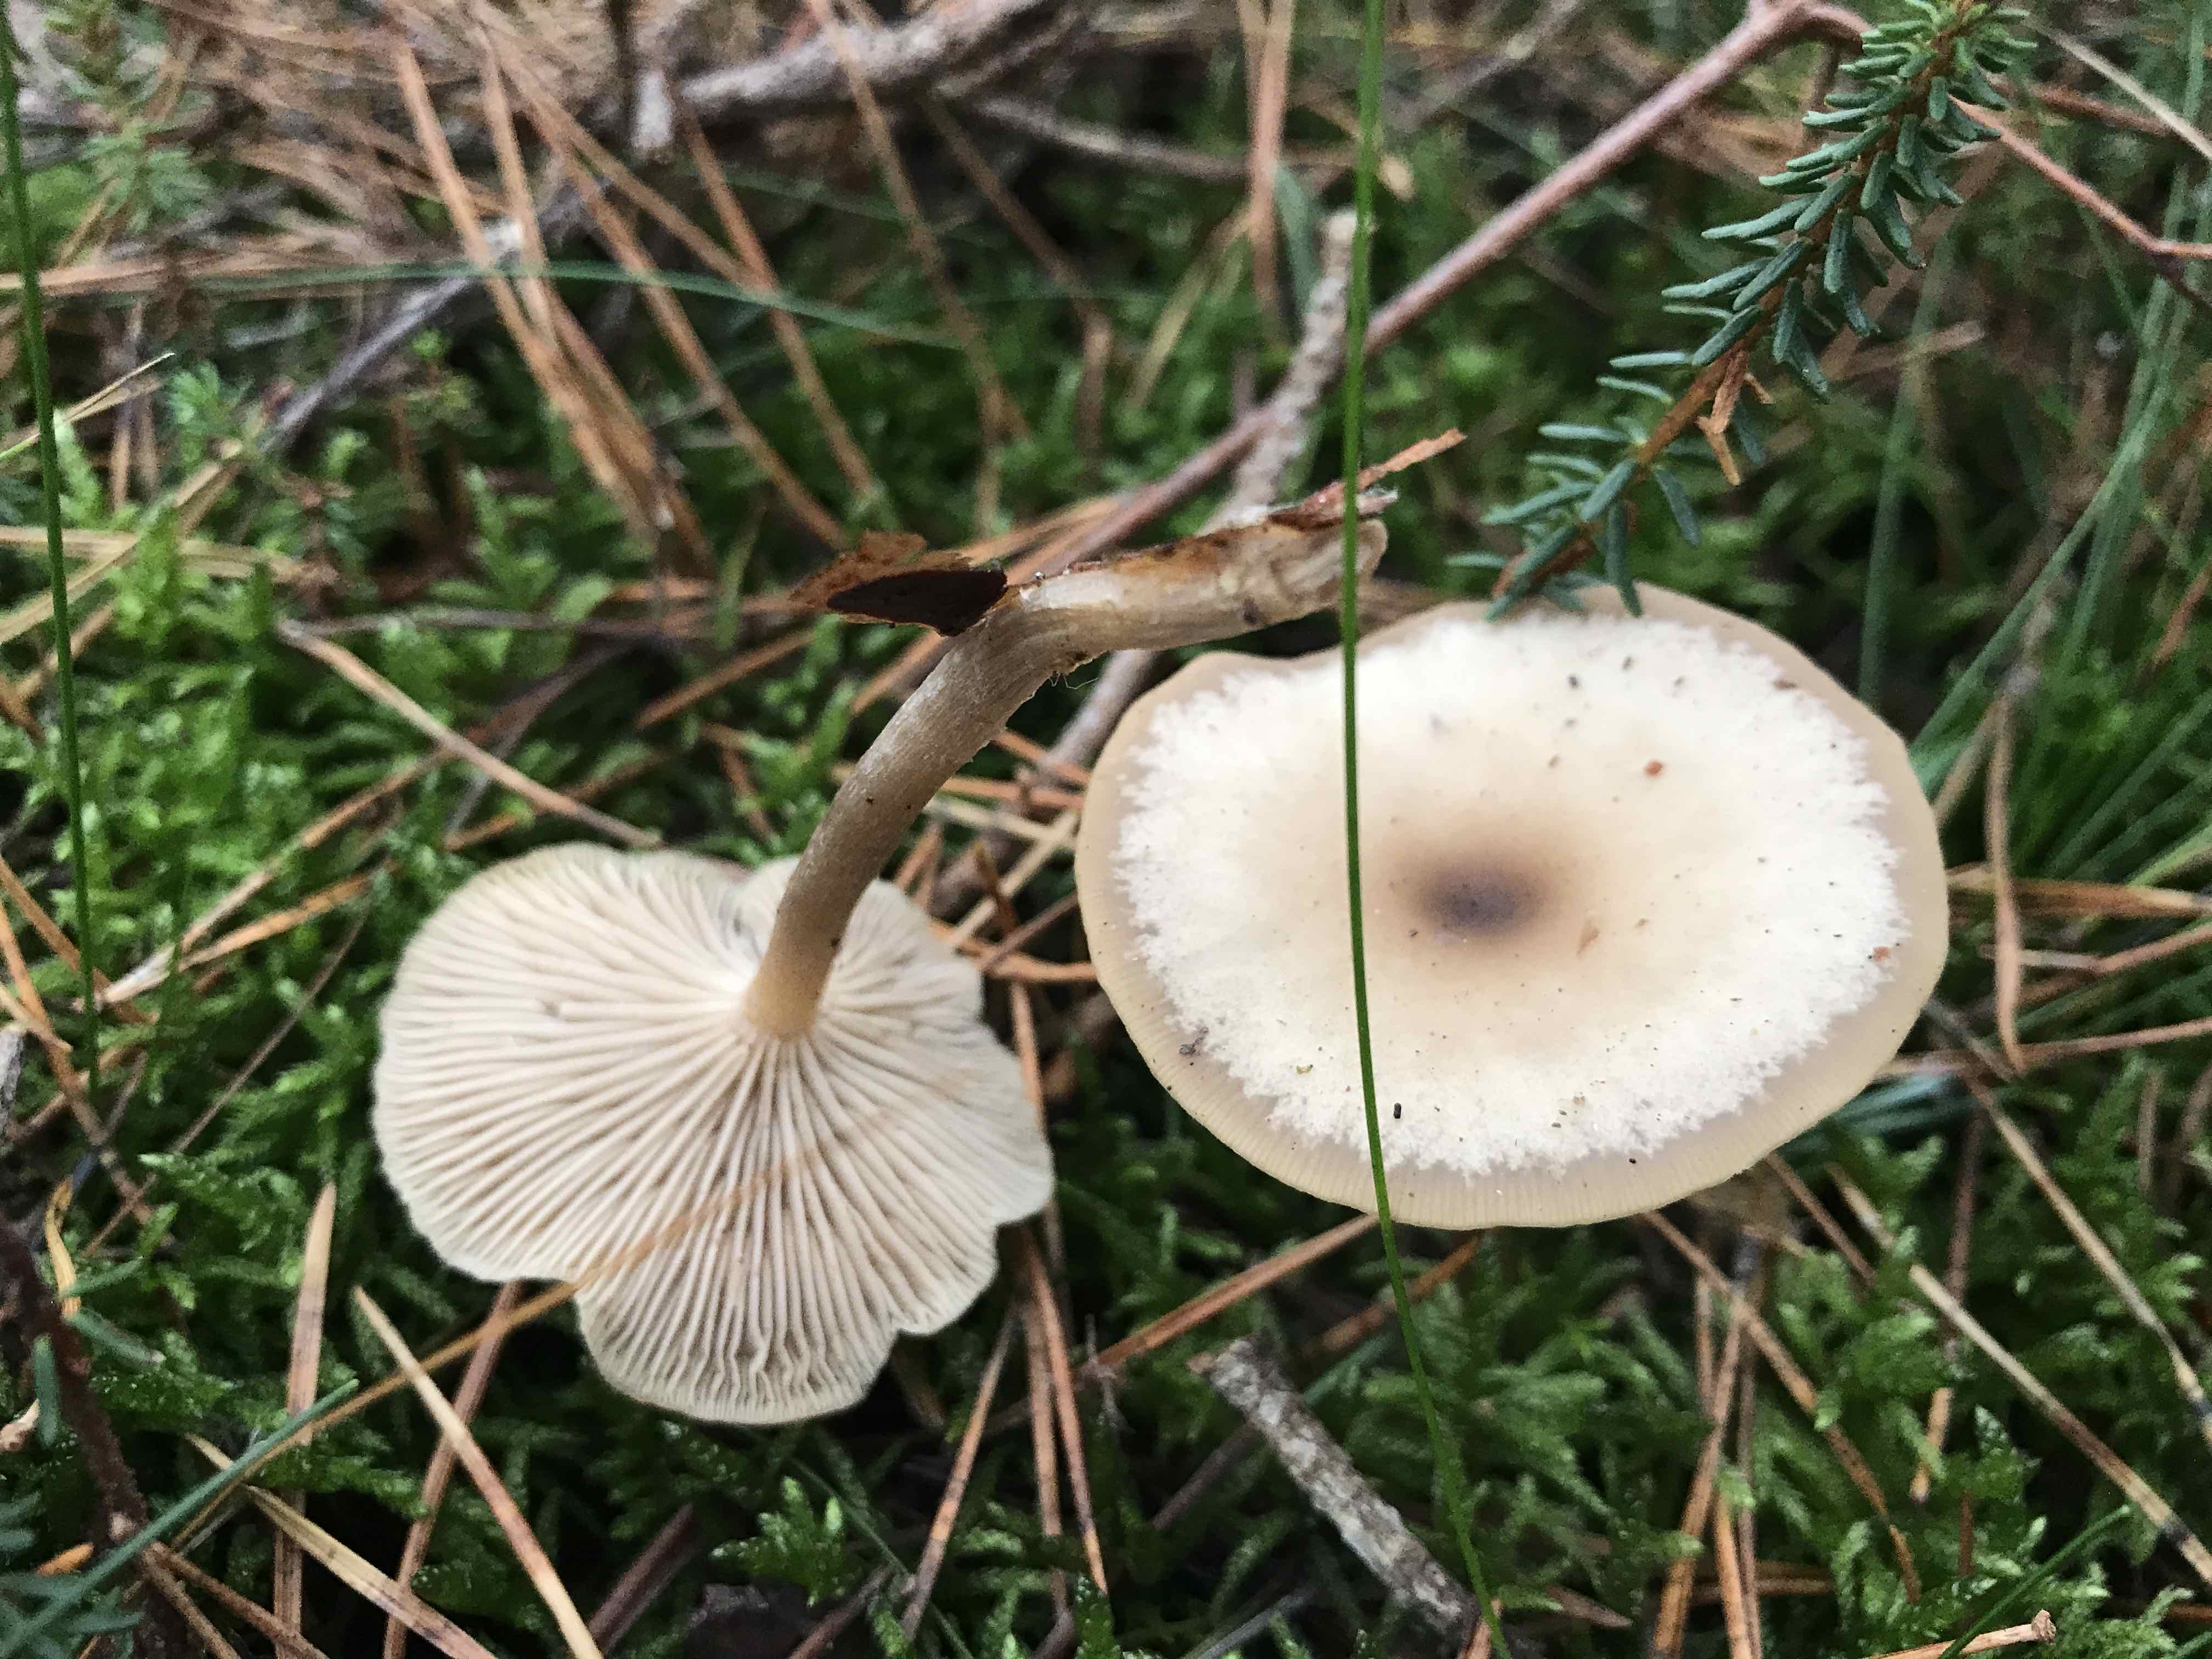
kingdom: Fungi
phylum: Basidiomycota
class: Agaricomycetes
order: Agaricales
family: Tricholomataceae
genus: Clitocybe
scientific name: Clitocybe metachroa
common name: grå tragthat
